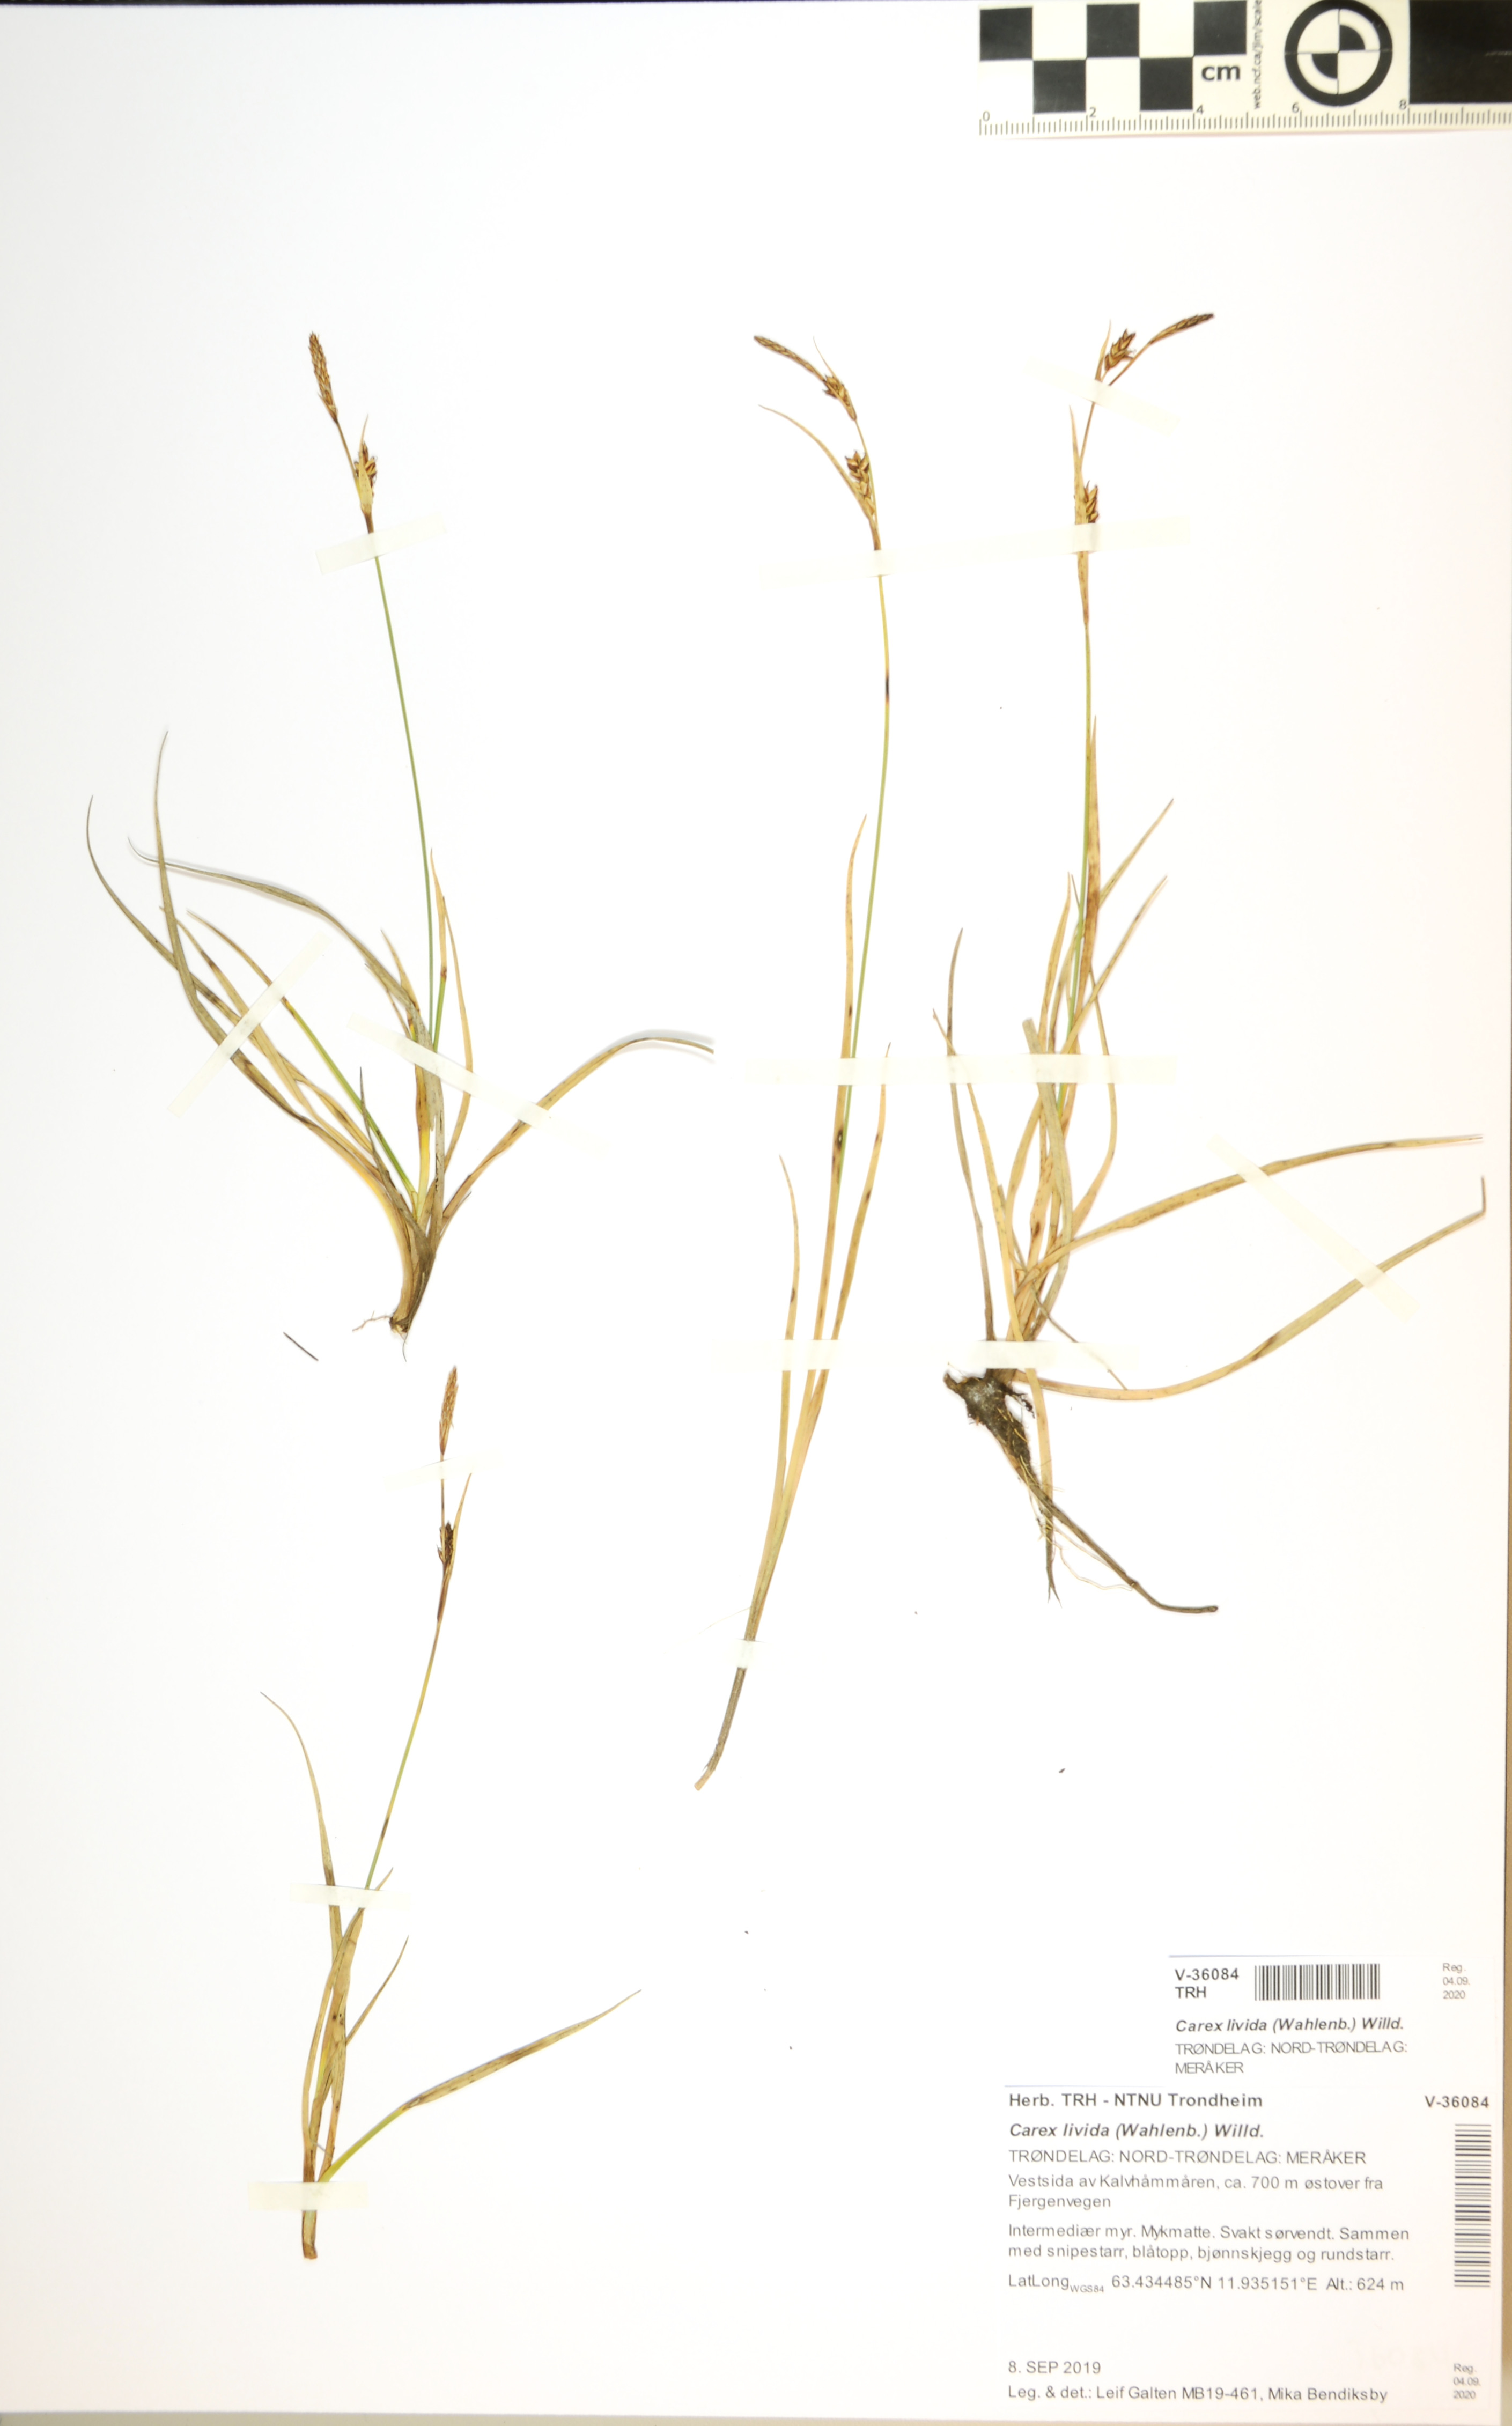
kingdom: Plantae
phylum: Tracheophyta
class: Liliopsida
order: Poales
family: Cyperaceae
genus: Carex
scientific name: Carex livida
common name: Livid sedge
